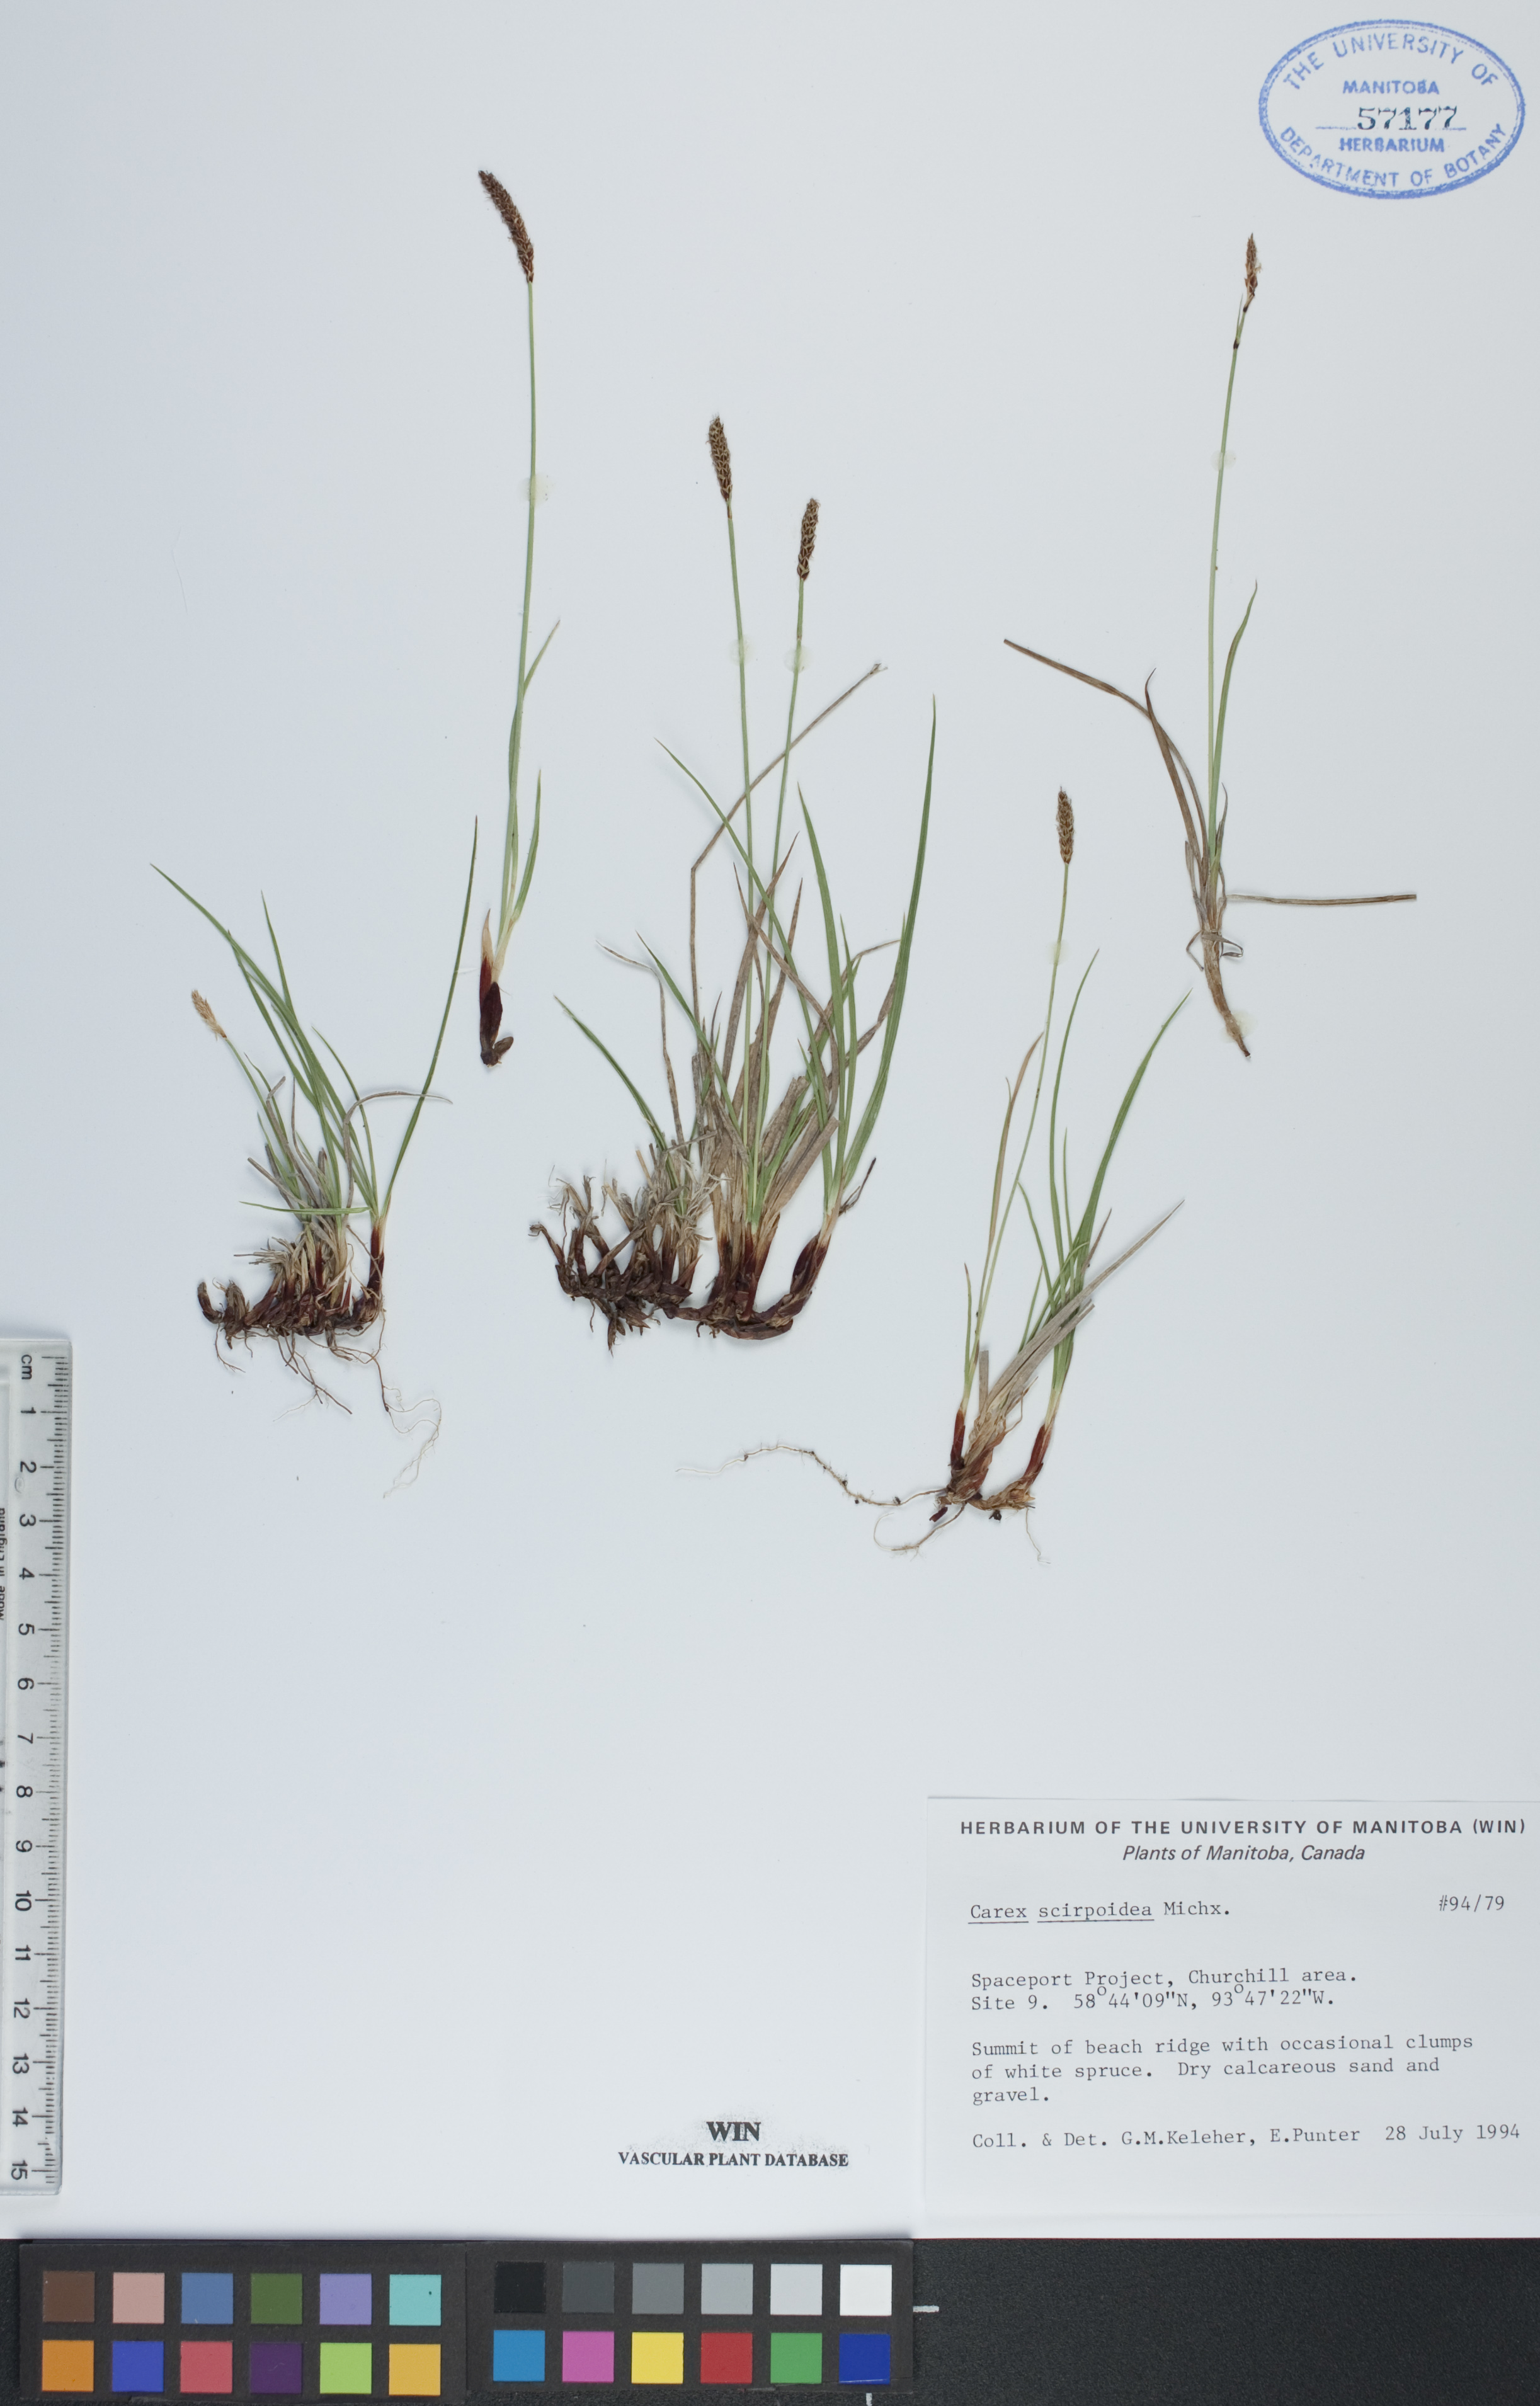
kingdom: Plantae
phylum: Tracheophyta
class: Liliopsida
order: Poales
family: Cyperaceae
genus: Carex
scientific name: Carex scirpoidea
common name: Canada single-spike sedge
